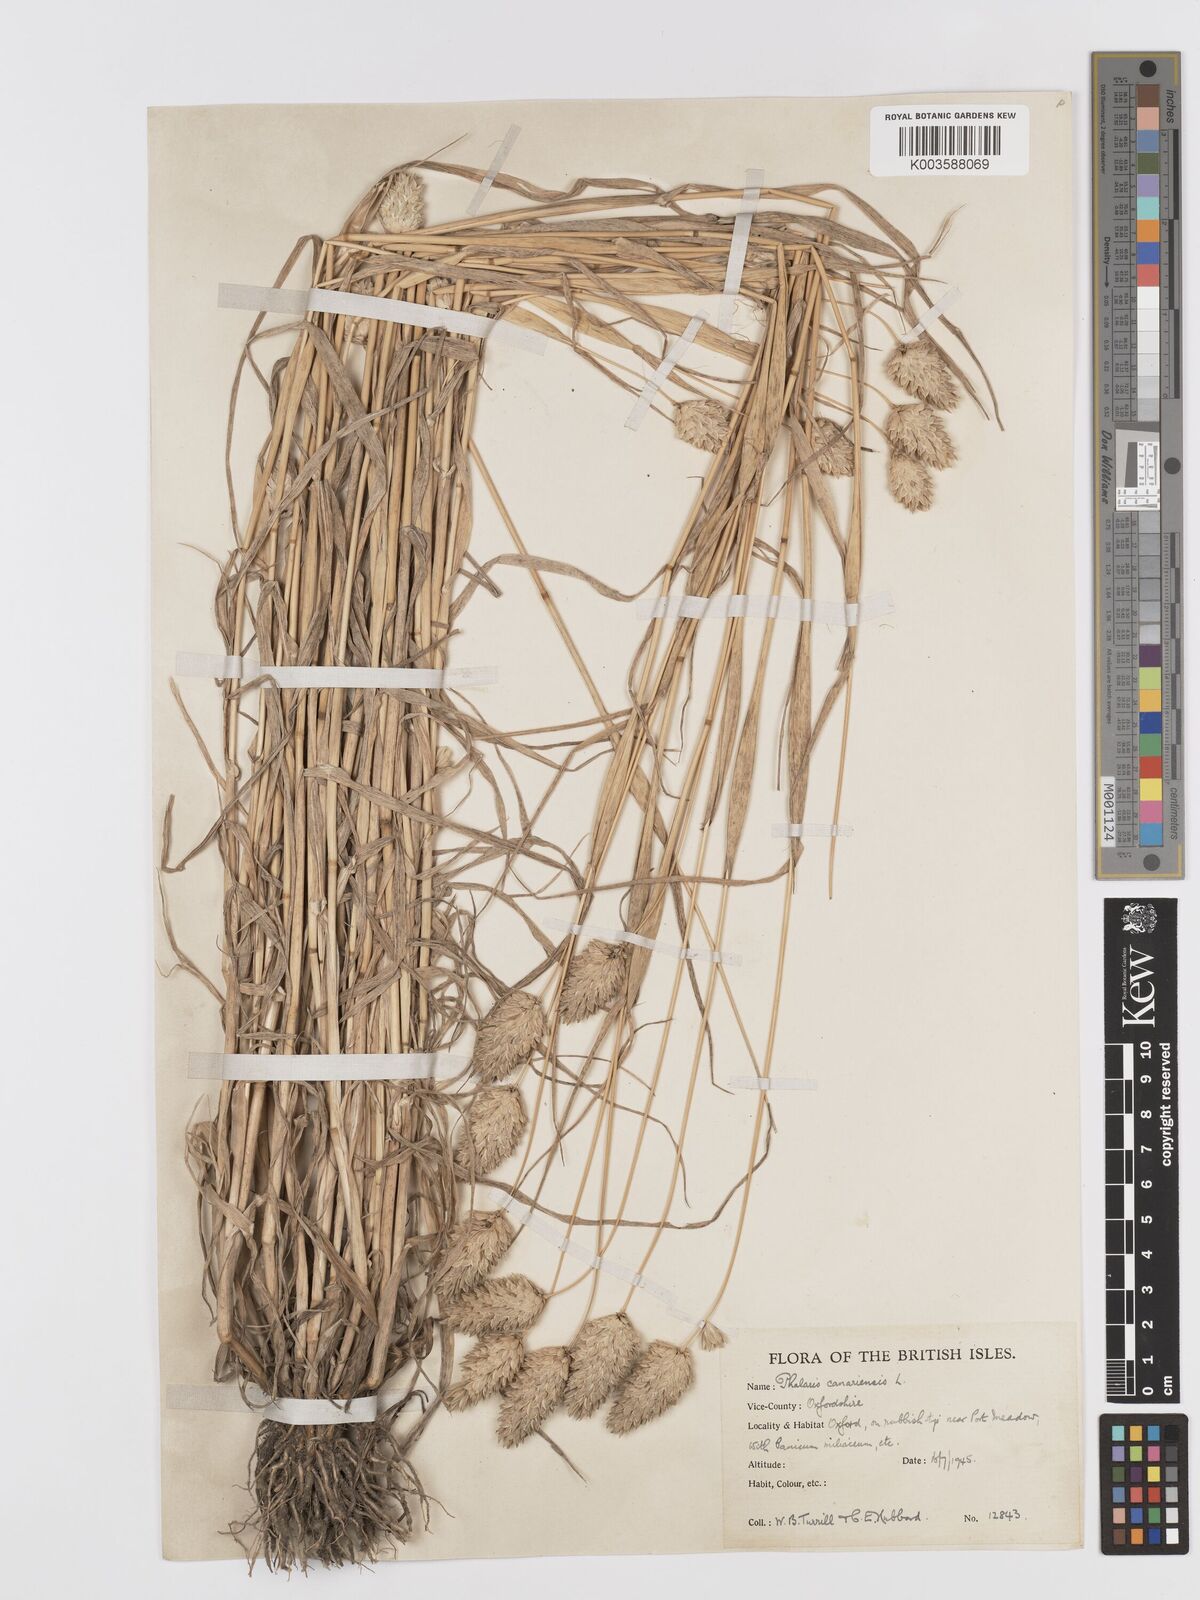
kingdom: Plantae
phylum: Tracheophyta
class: Liliopsida
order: Poales
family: Poaceae
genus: Phalaris
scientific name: Phalaris canariensis
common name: Annual canarygrass
